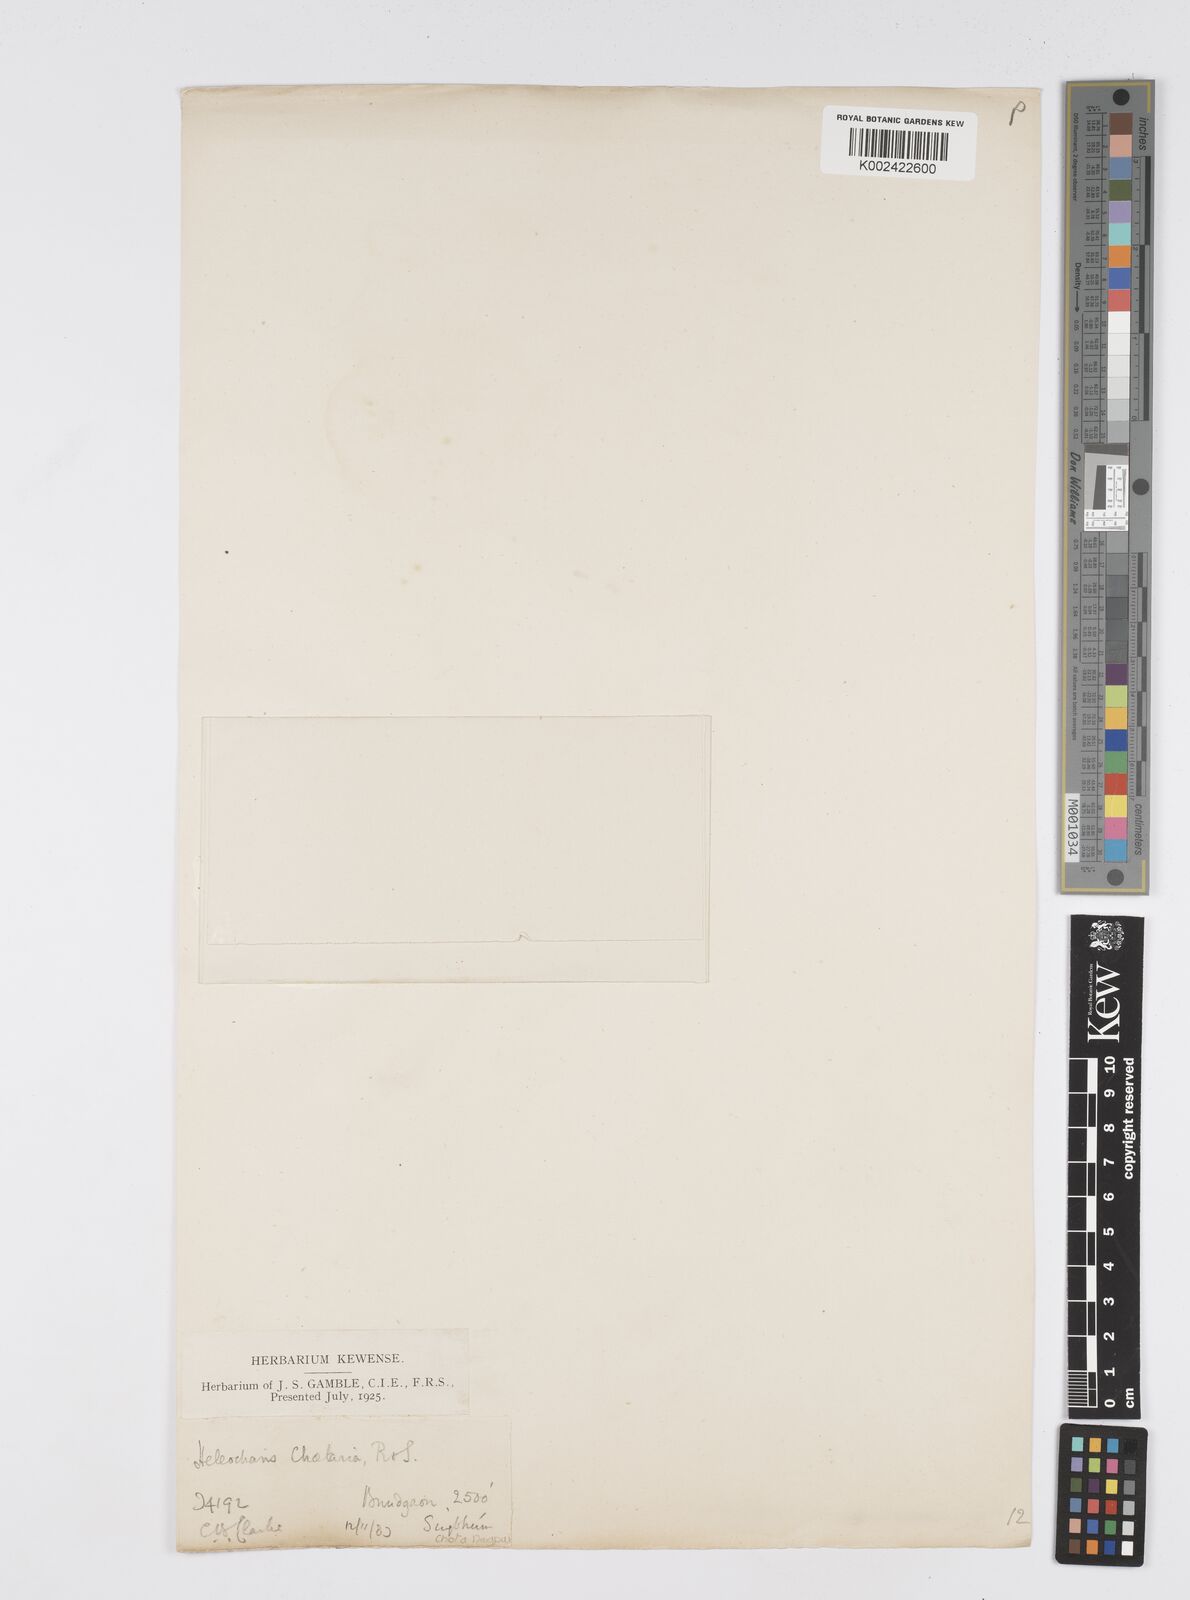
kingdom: Plantae
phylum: Tracheophyta
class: Liliopsida
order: Poales
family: Cyperaceae
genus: Eleocharis
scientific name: Eleocharis retroflexa
